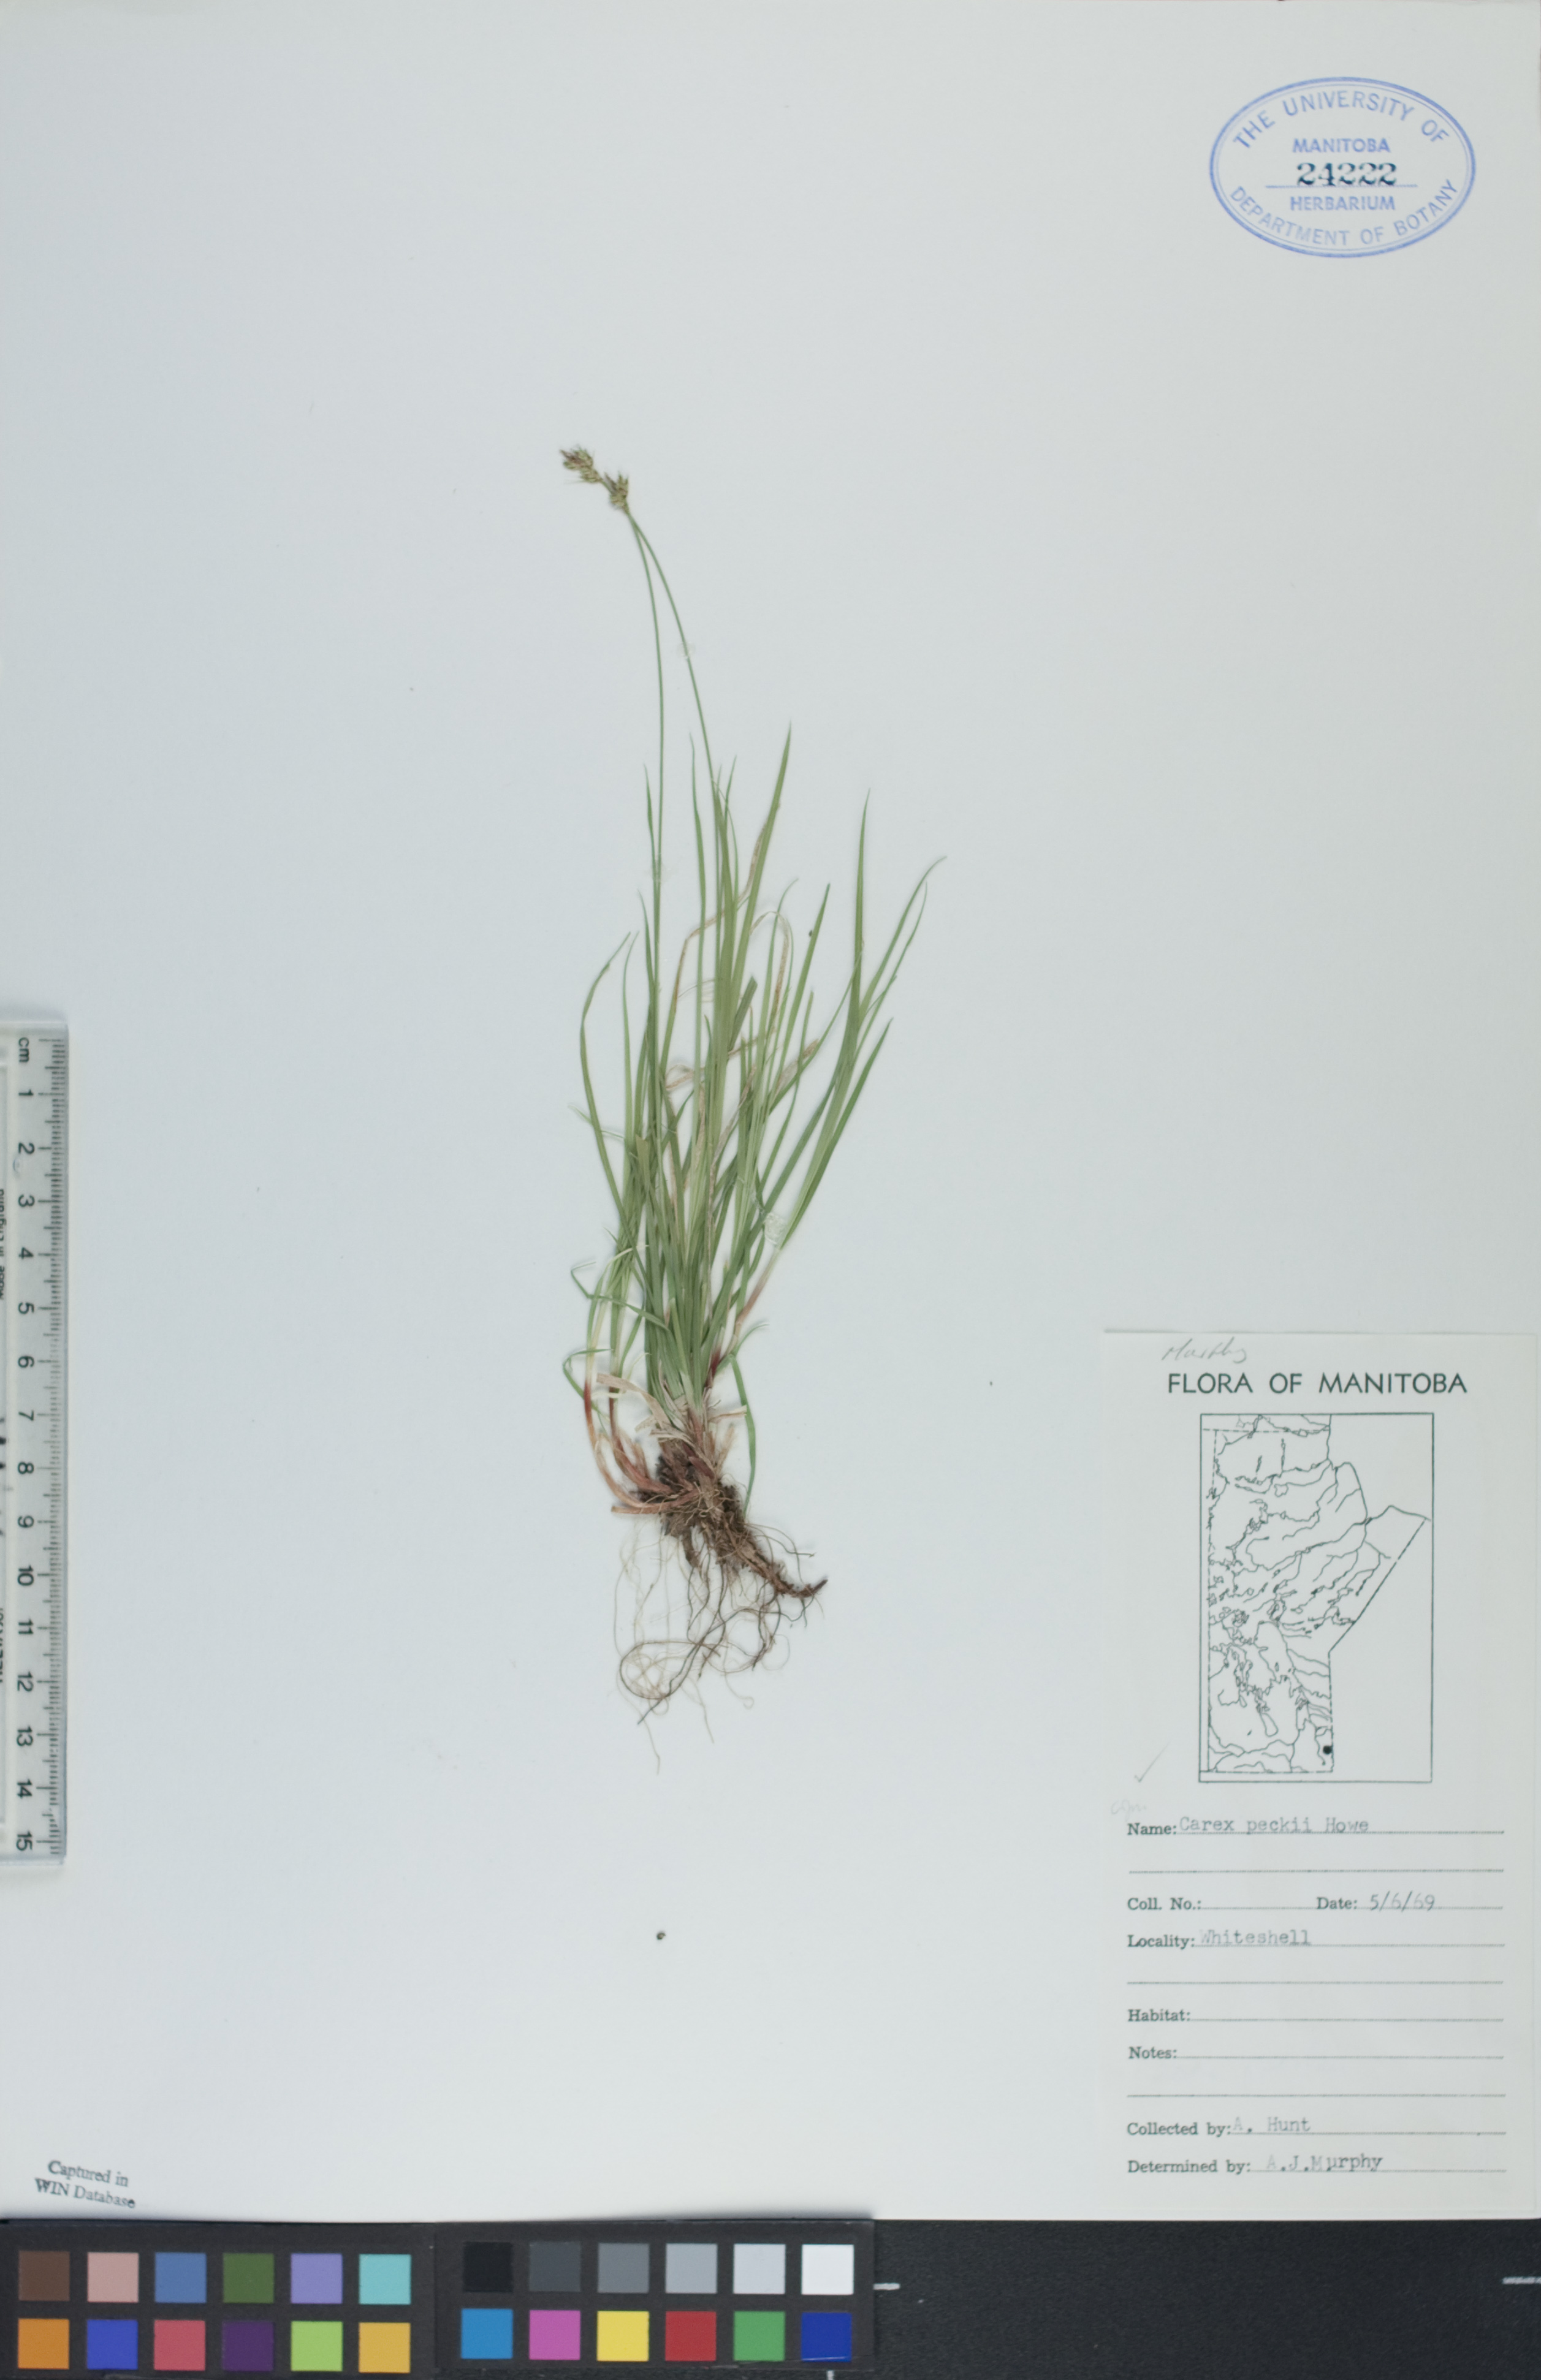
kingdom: Plantae
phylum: Tracheophyta
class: Liliopsida
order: Poales
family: Cyperaceae
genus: Carex
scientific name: Carex peckii
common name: Peck's oak sedge
